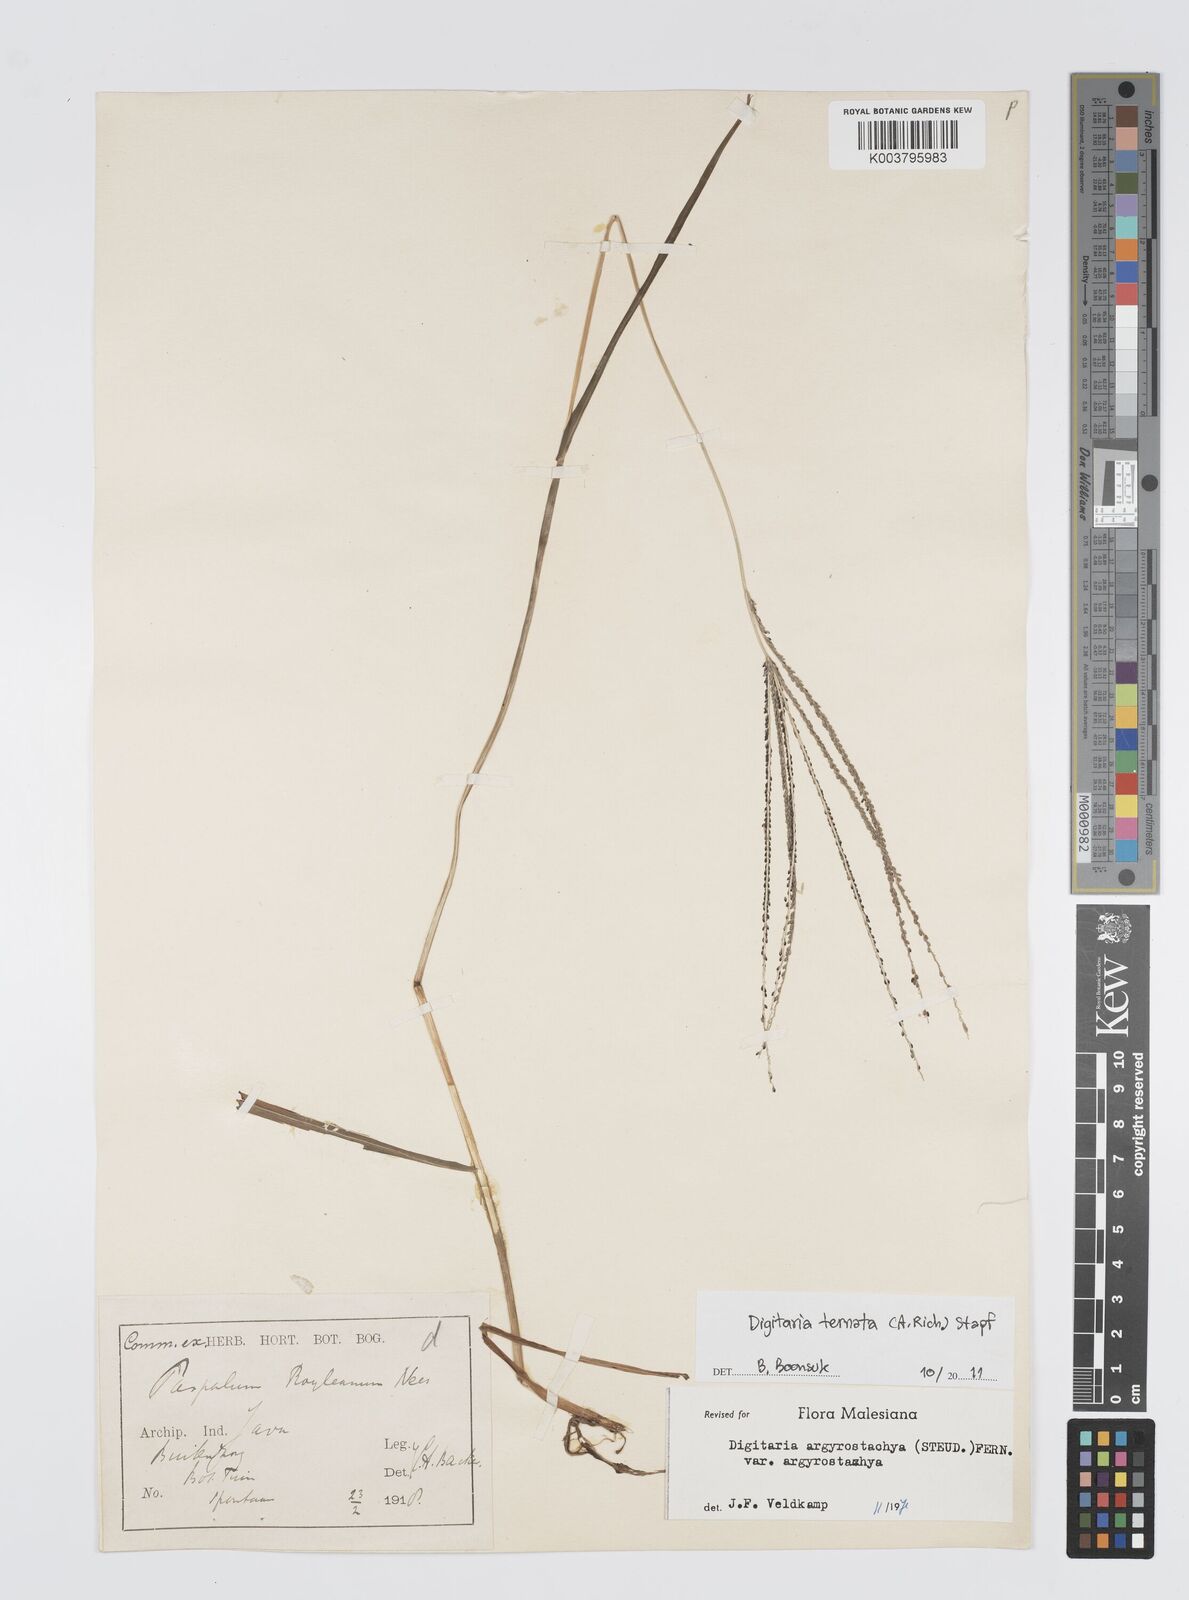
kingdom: Plantae
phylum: Tracheophyta
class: Liliopsida
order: Poales
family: Poaceae
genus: Digitaria
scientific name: Digitaria ternata
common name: Blackseed crabgrass
